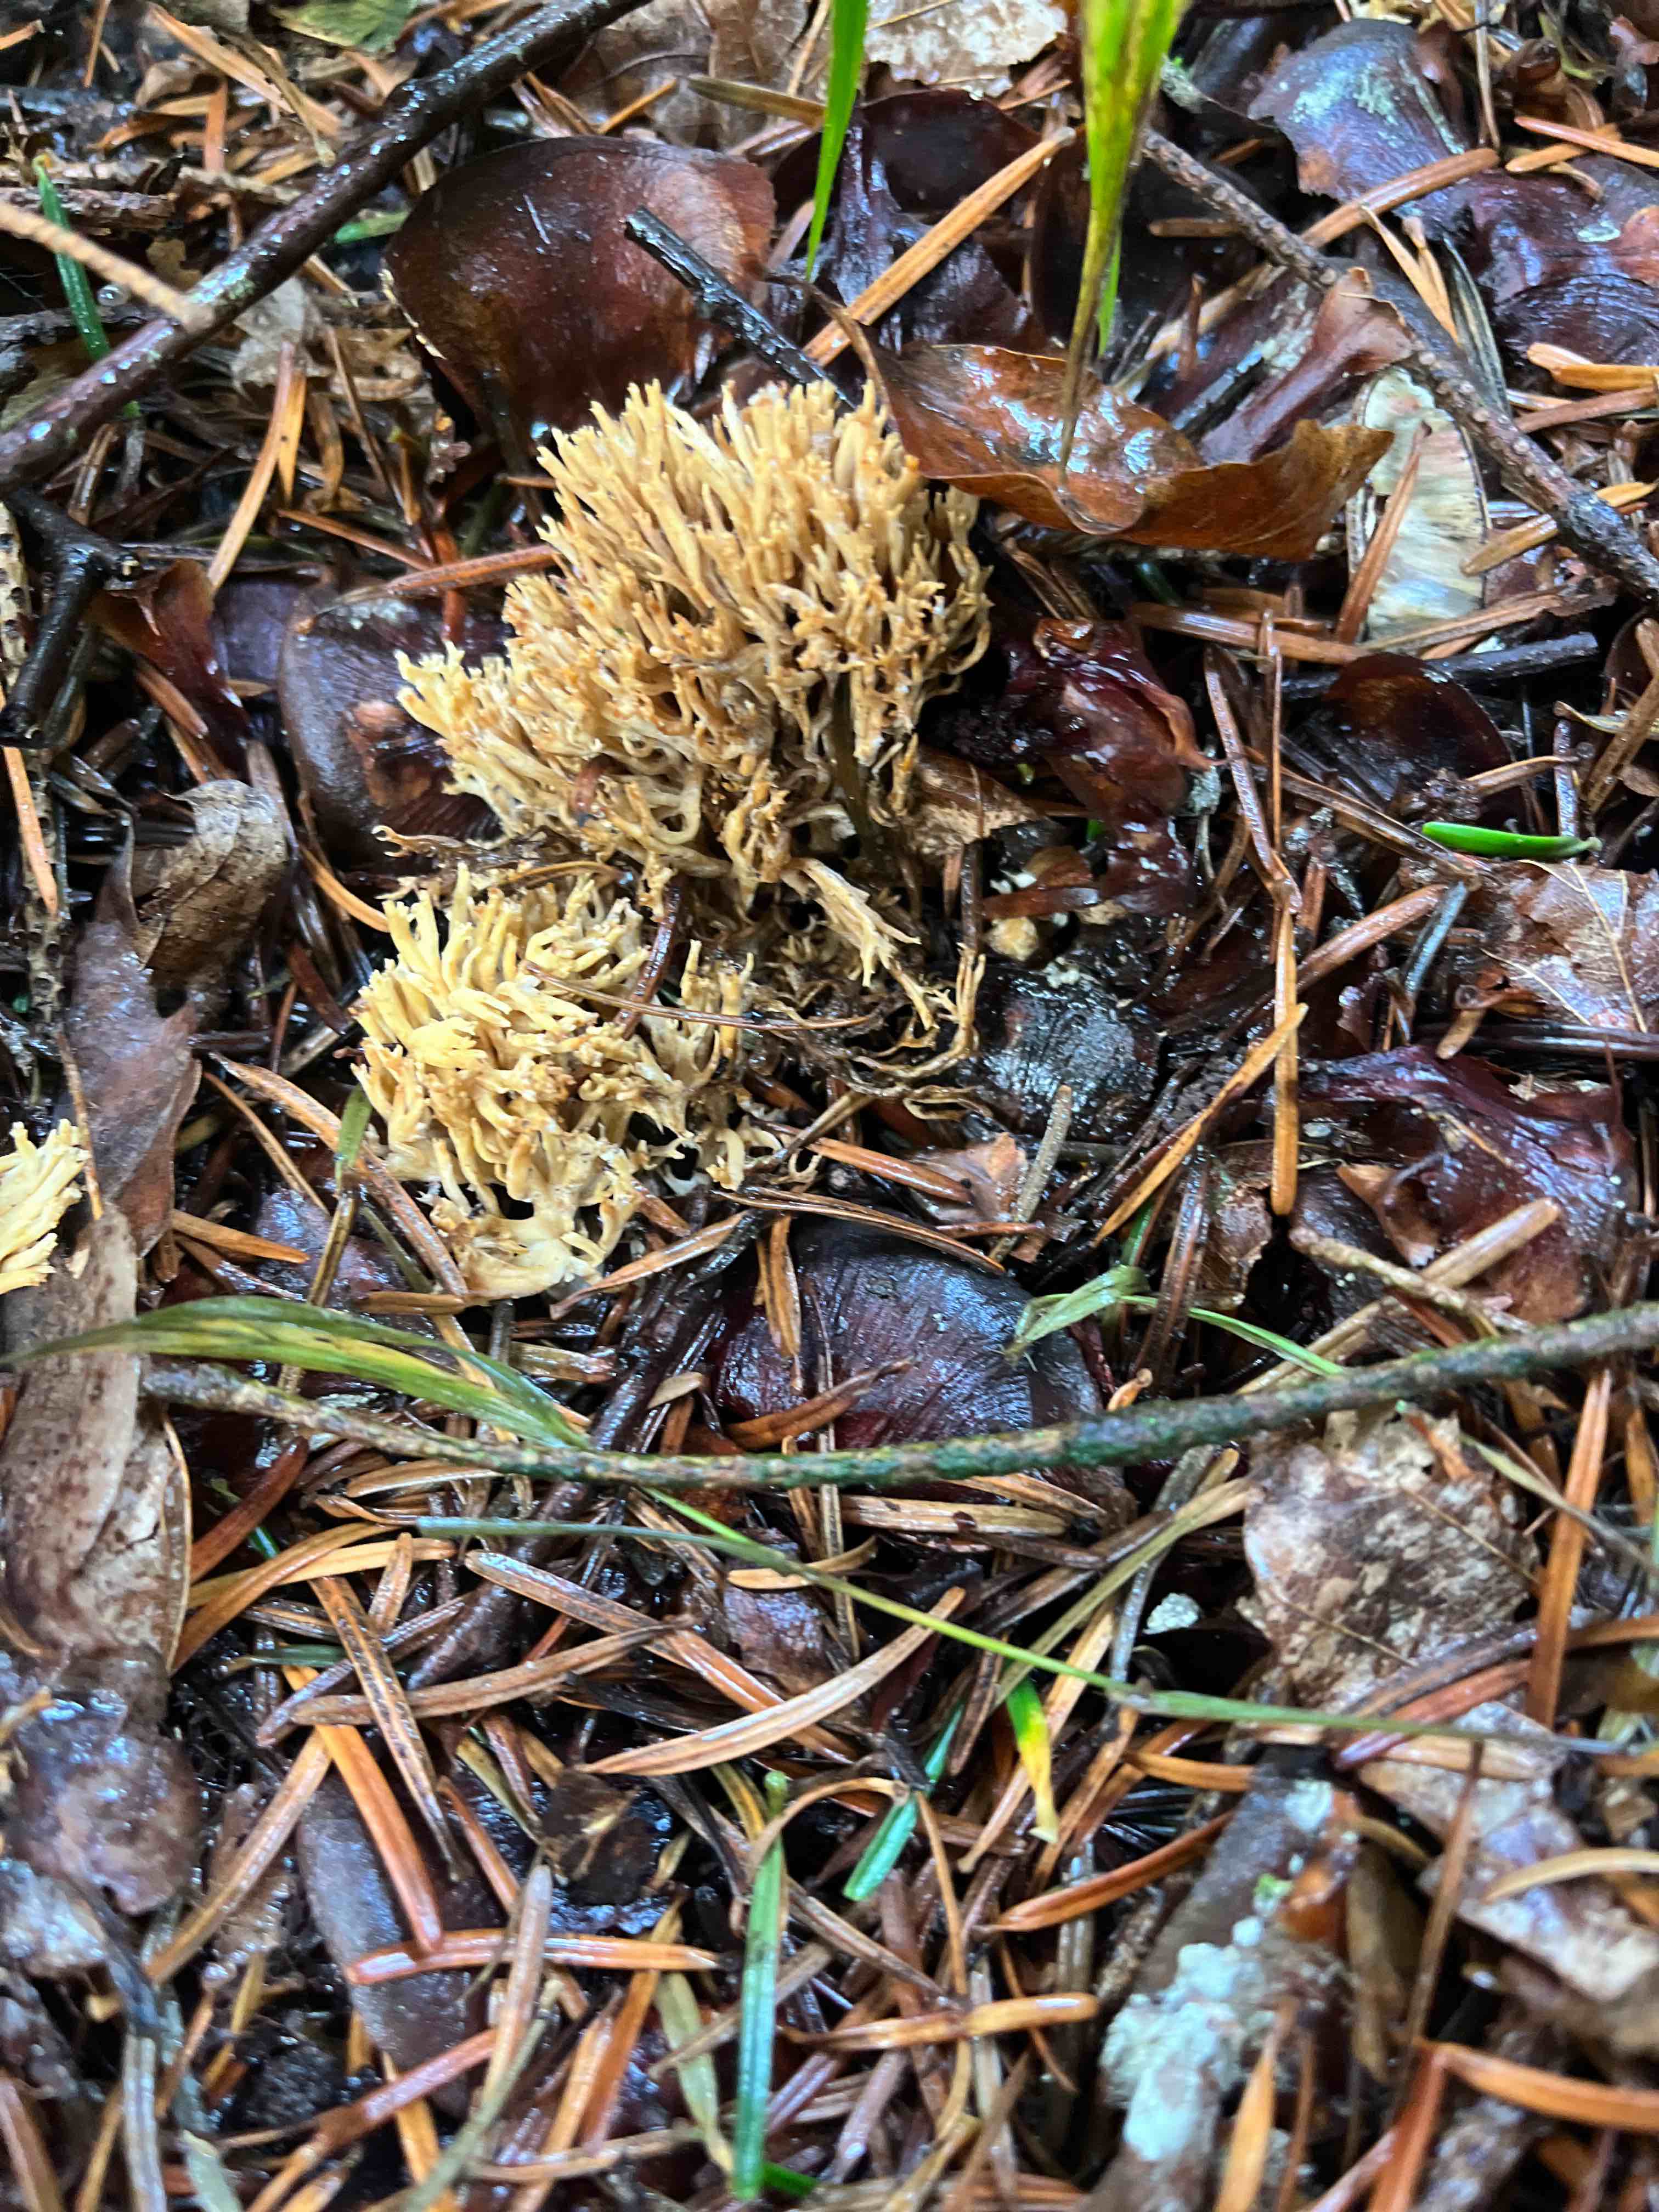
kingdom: Fungi
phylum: Basidiomycota
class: Agaricomycetes
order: Gomphales
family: Gomphaceae
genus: Phaeoclavulina
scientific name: Phaeoclavulina eumorpha
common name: gran-koralsvamp
